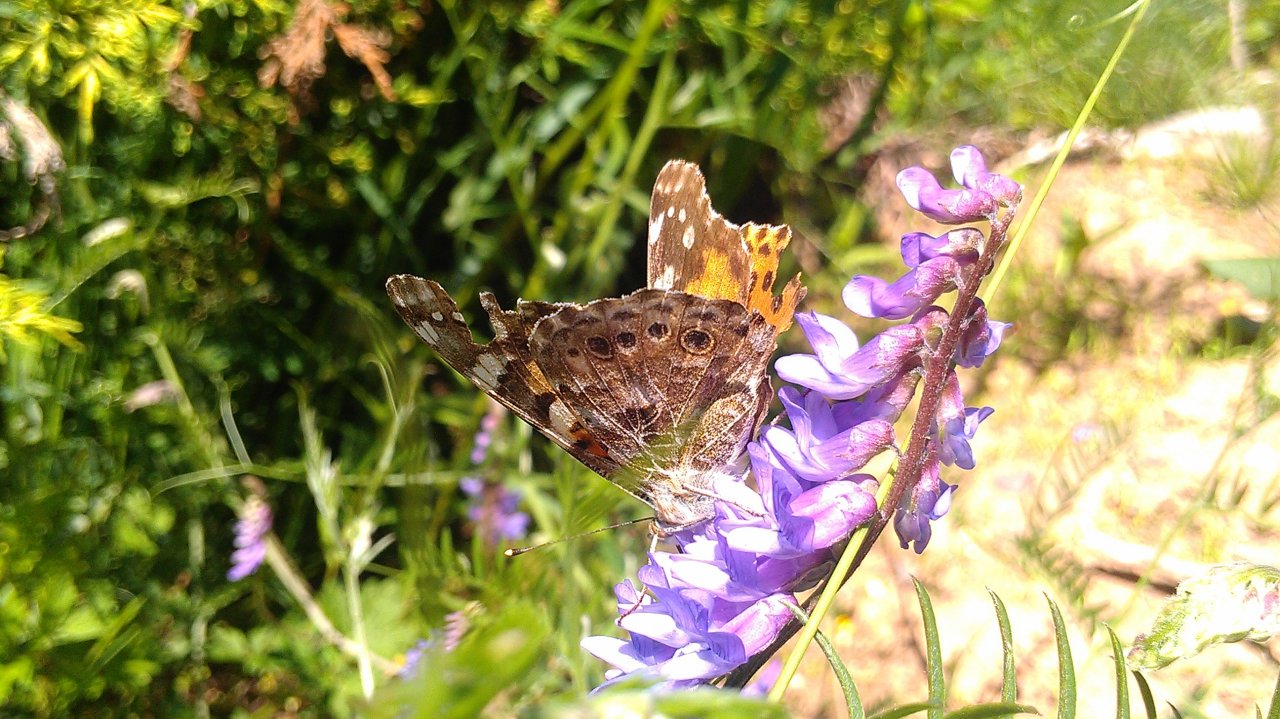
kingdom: Animalia
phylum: Arthropoda
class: Insecta
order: Lepidoptera
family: Nymphalidae
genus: Vanessa
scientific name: Vanessa cardui
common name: Painted Lady
